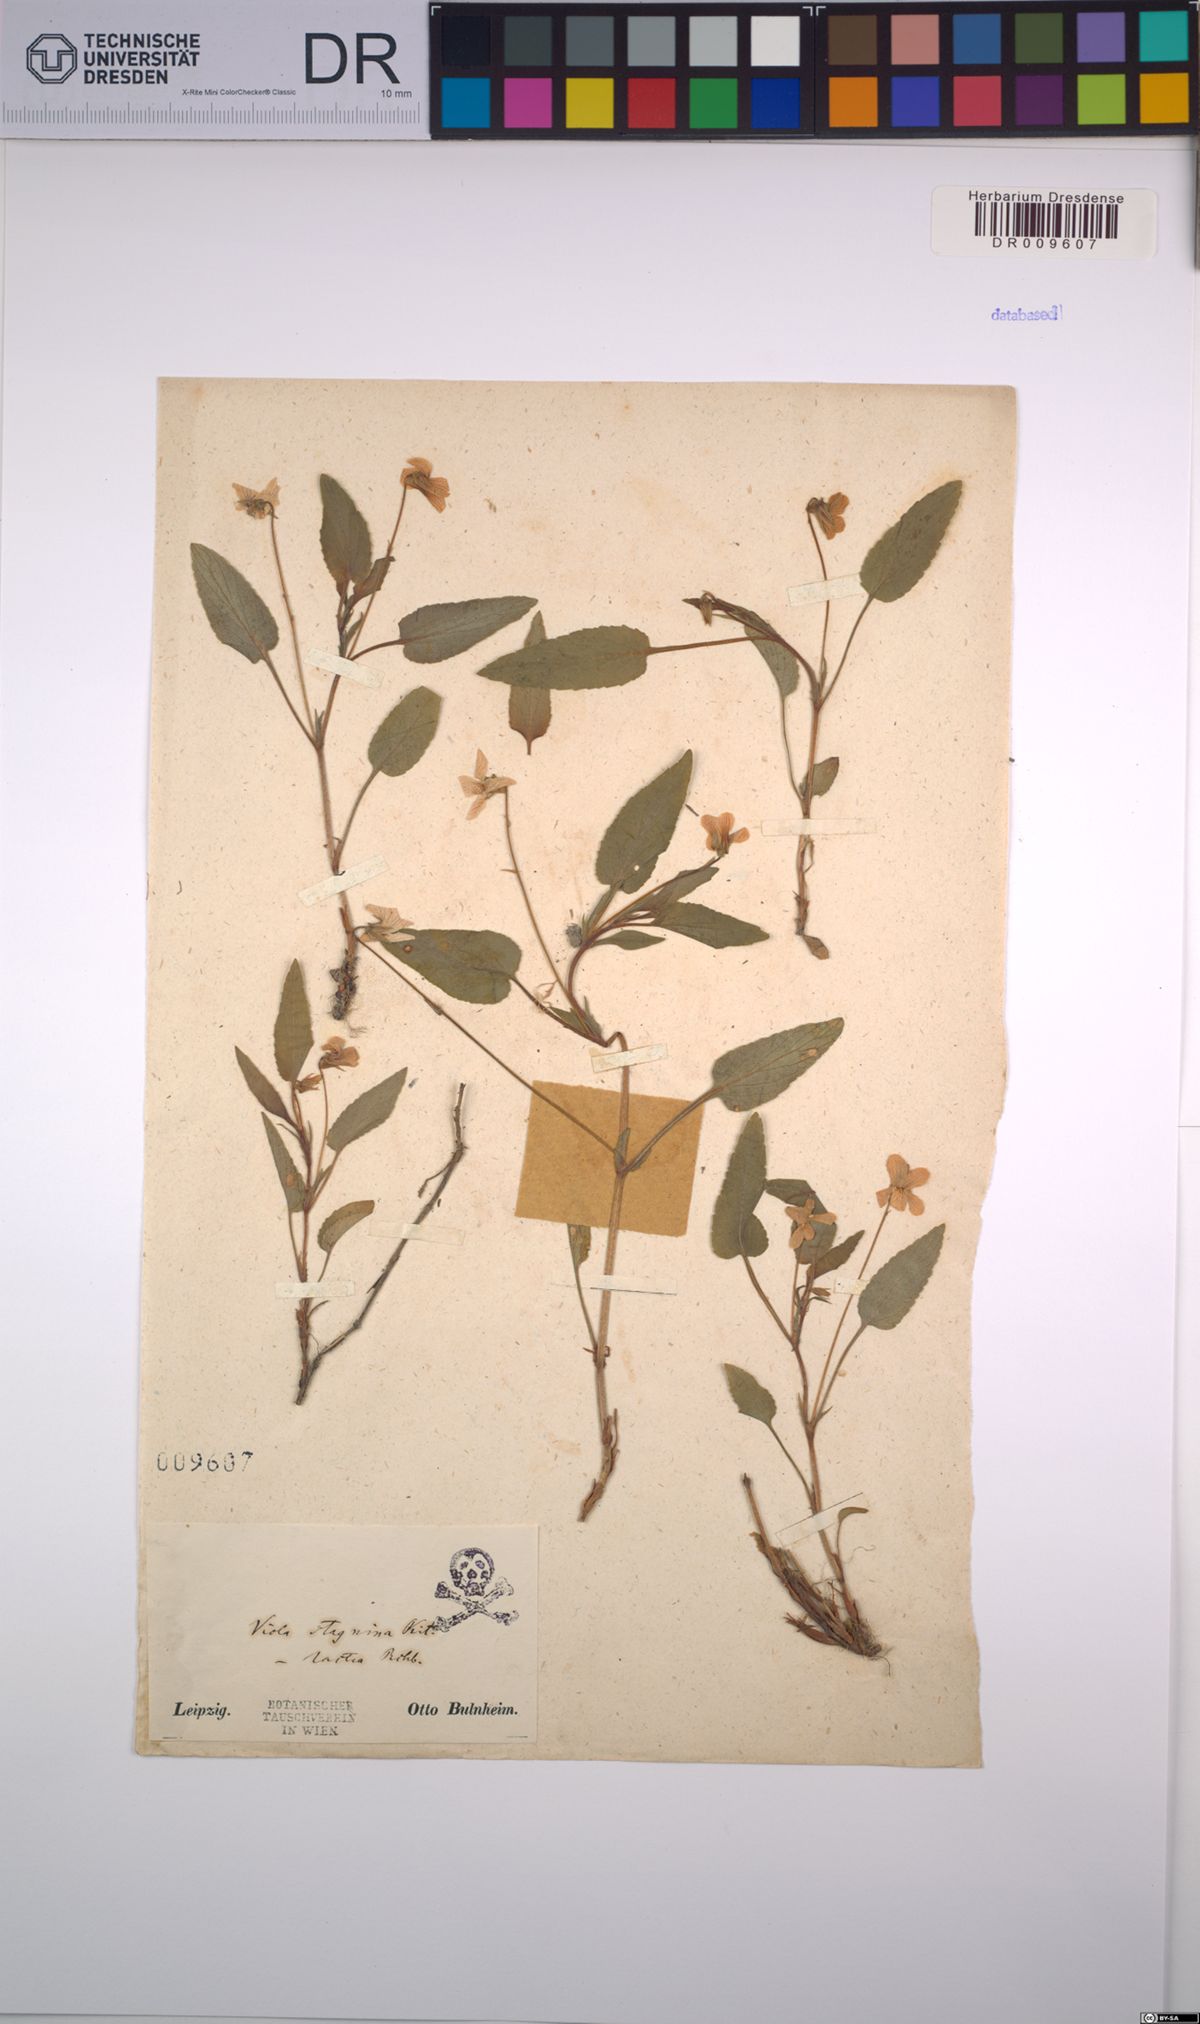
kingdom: Plantae
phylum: Tracheophyta
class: Magnoliopsida
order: Malpighiales
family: Violaceae
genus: Viola
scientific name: Viola stagnina
